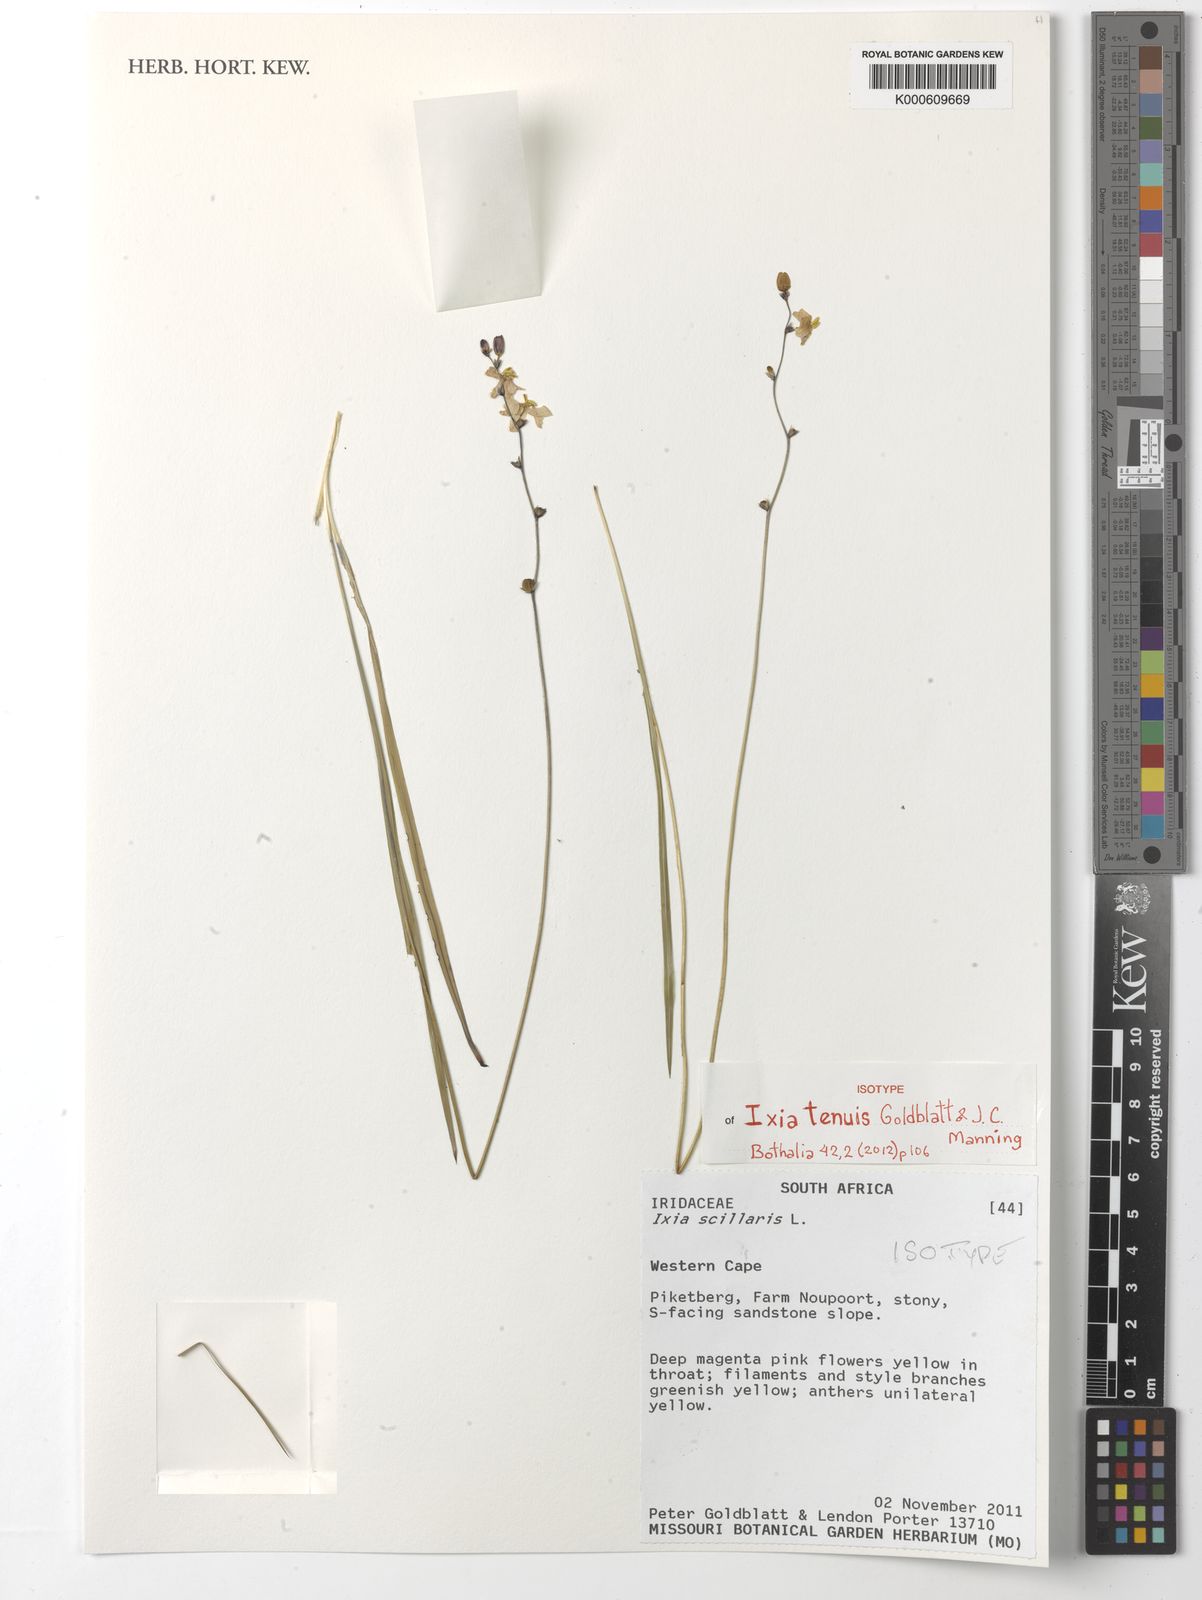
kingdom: Plantae
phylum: Tracheophyta
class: Liliopsida
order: Asparagales
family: Iridaceae
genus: Ixia
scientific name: Ixia tenuis
